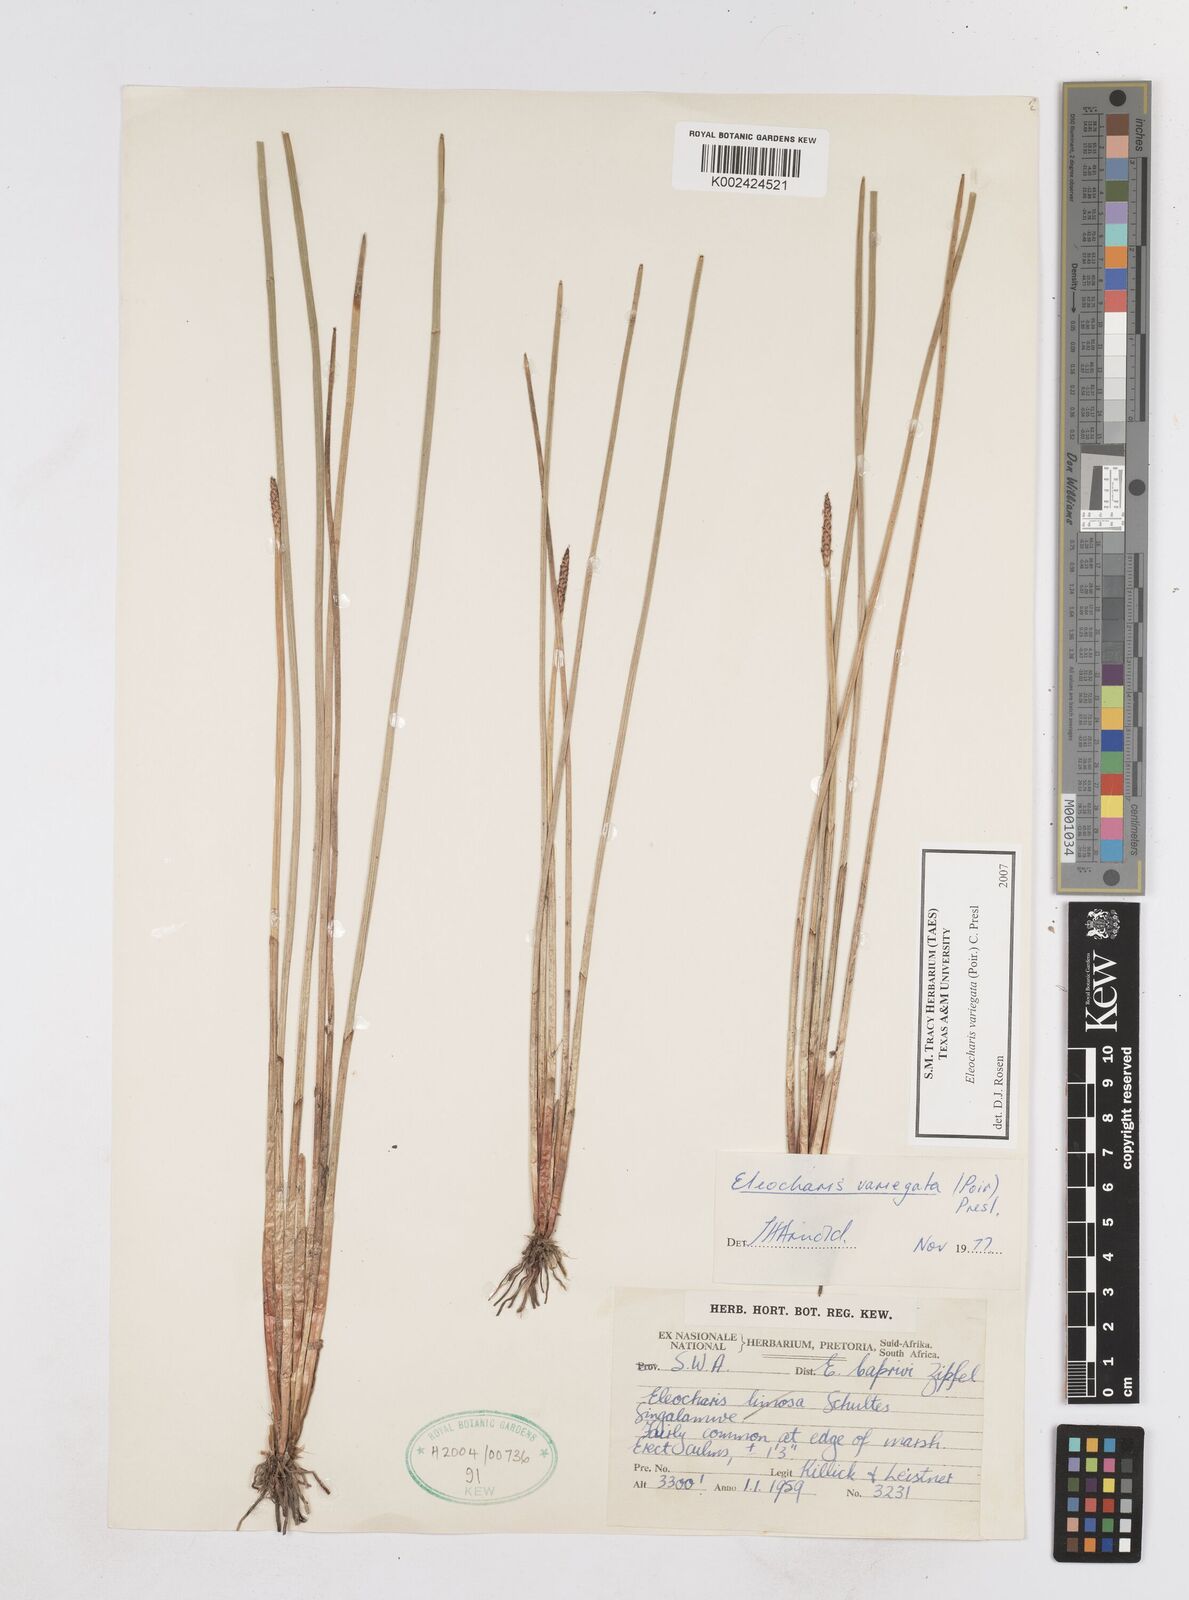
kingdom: Plantae
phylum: Tracheophyta
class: Liliopsida
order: Poales
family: Cyperaceae
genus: Eleocharis
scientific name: Eleocharis variegata
